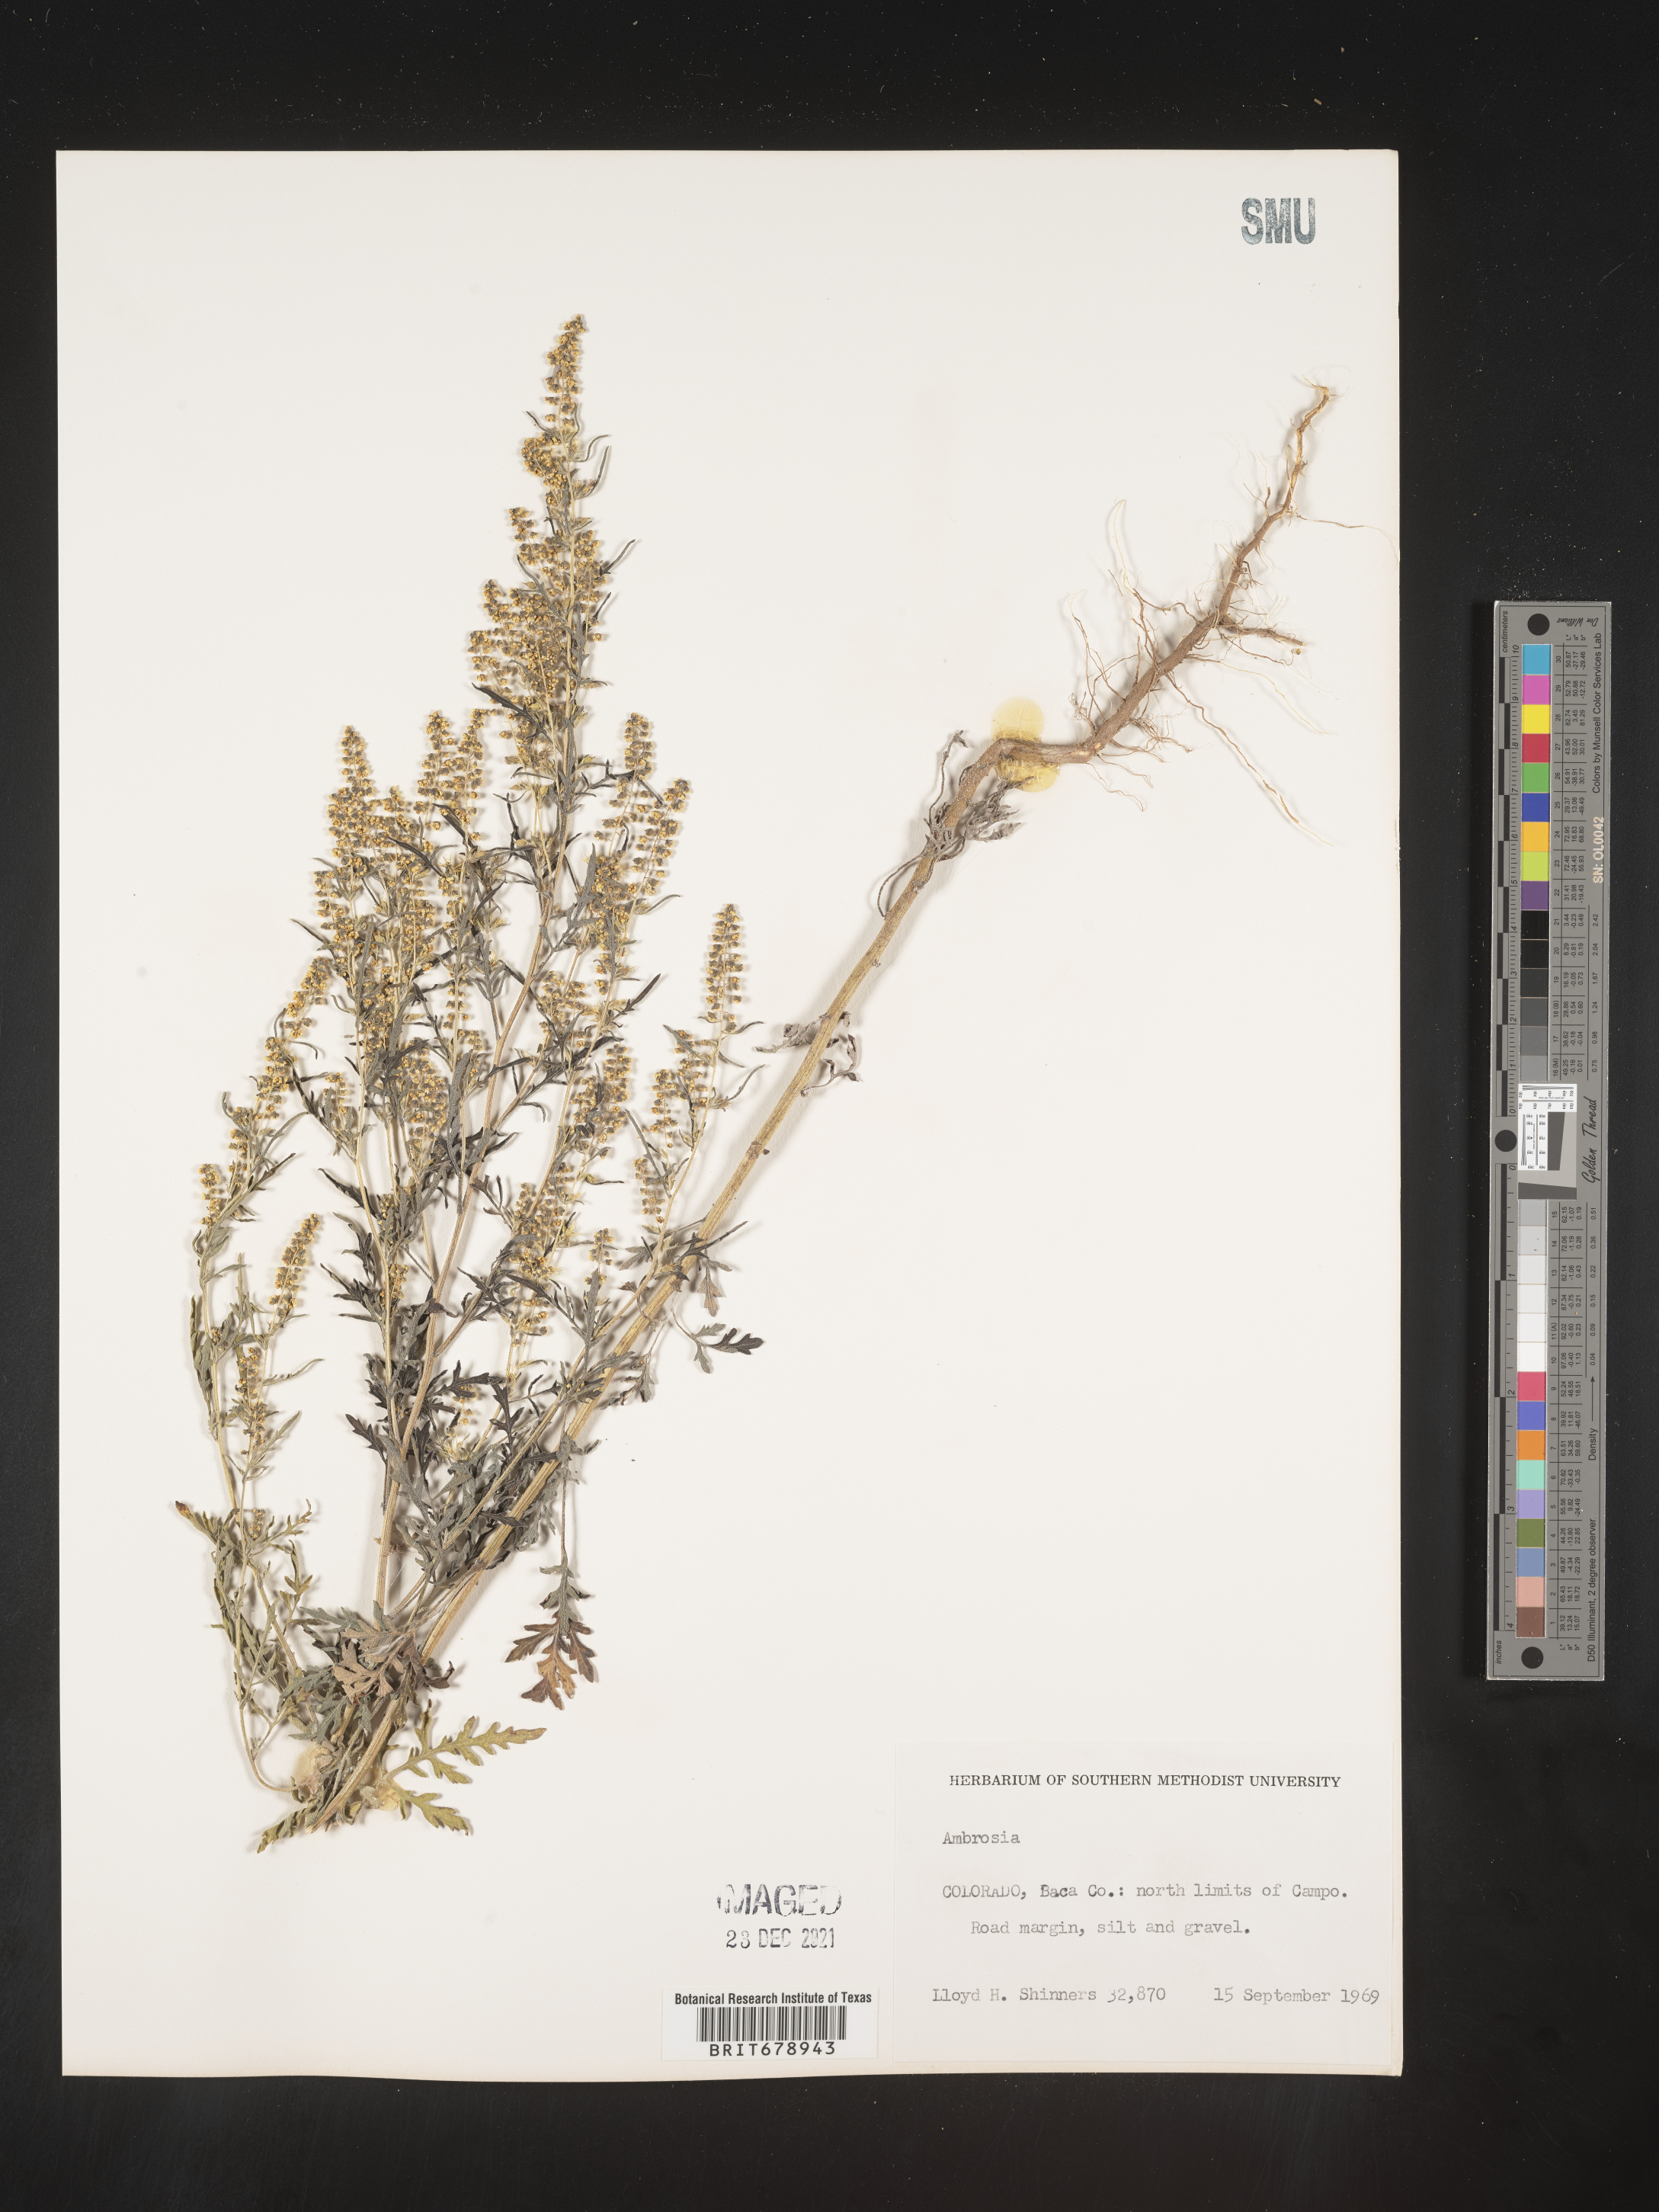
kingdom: Plantae
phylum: Tracheophyta
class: Magnoliopsida
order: Asterales
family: Asteraceae
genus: Ambrosia
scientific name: Ambrosia confertiflora
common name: Bur ragweed
